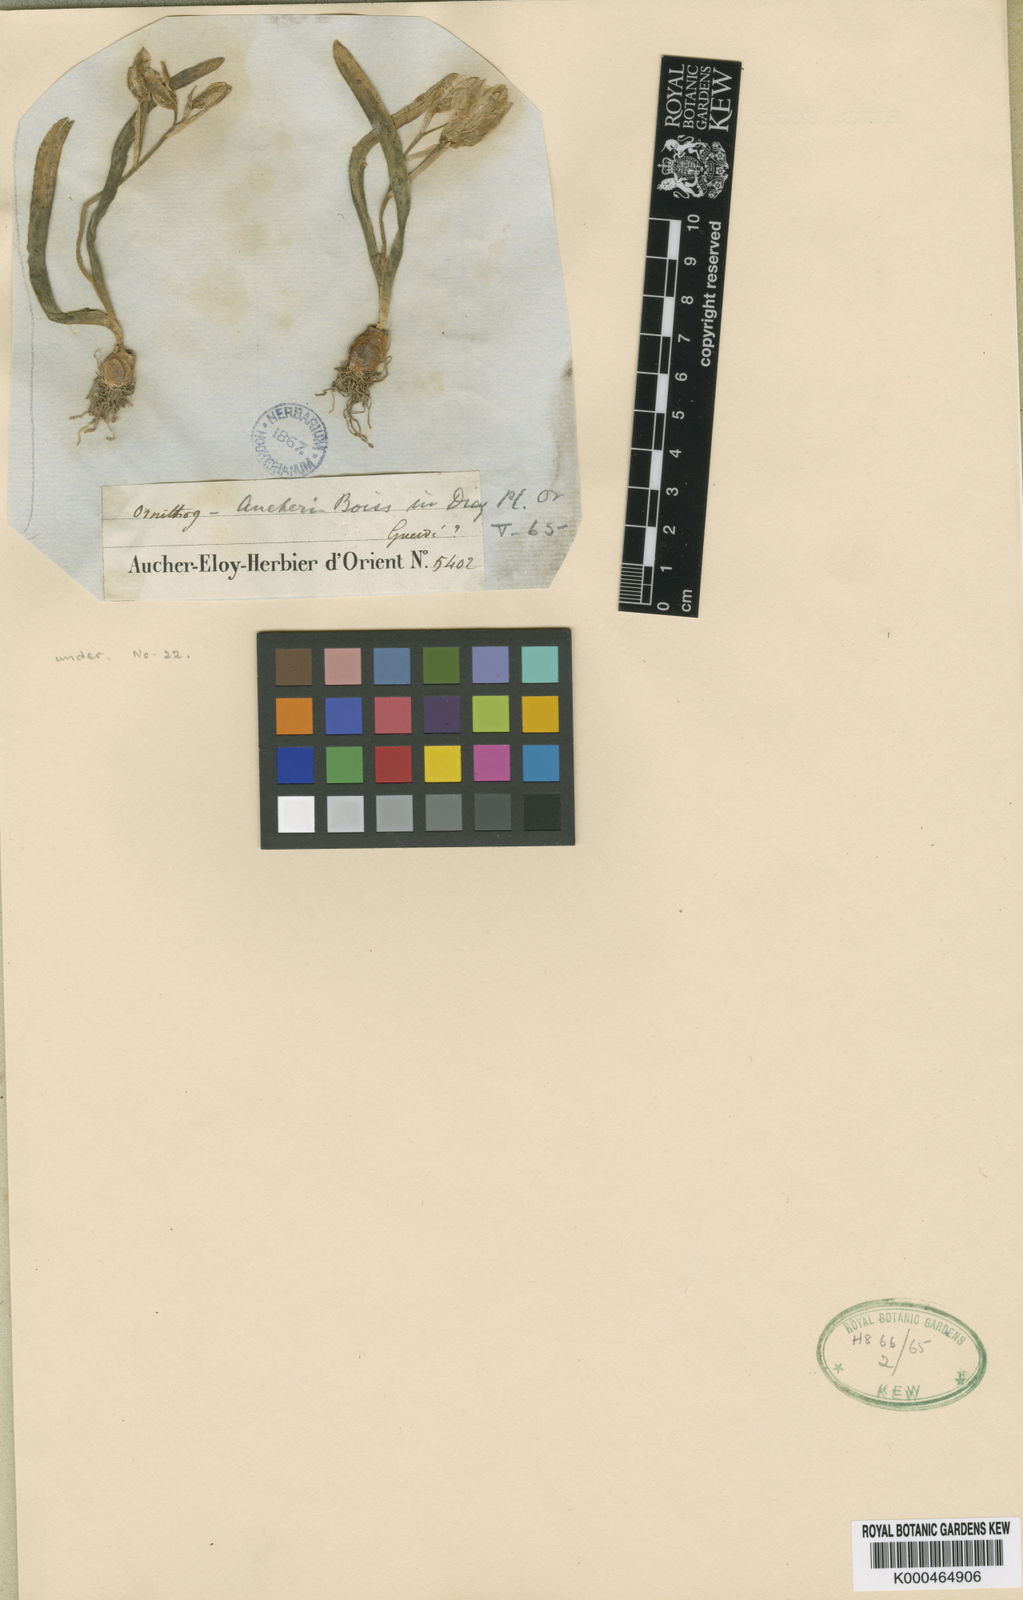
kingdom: Plantae
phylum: Tracheophyta
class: Liliopsida
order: Asparagales
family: Asparagaceae
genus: Ornithogalum
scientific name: Ornithogalum balansae
